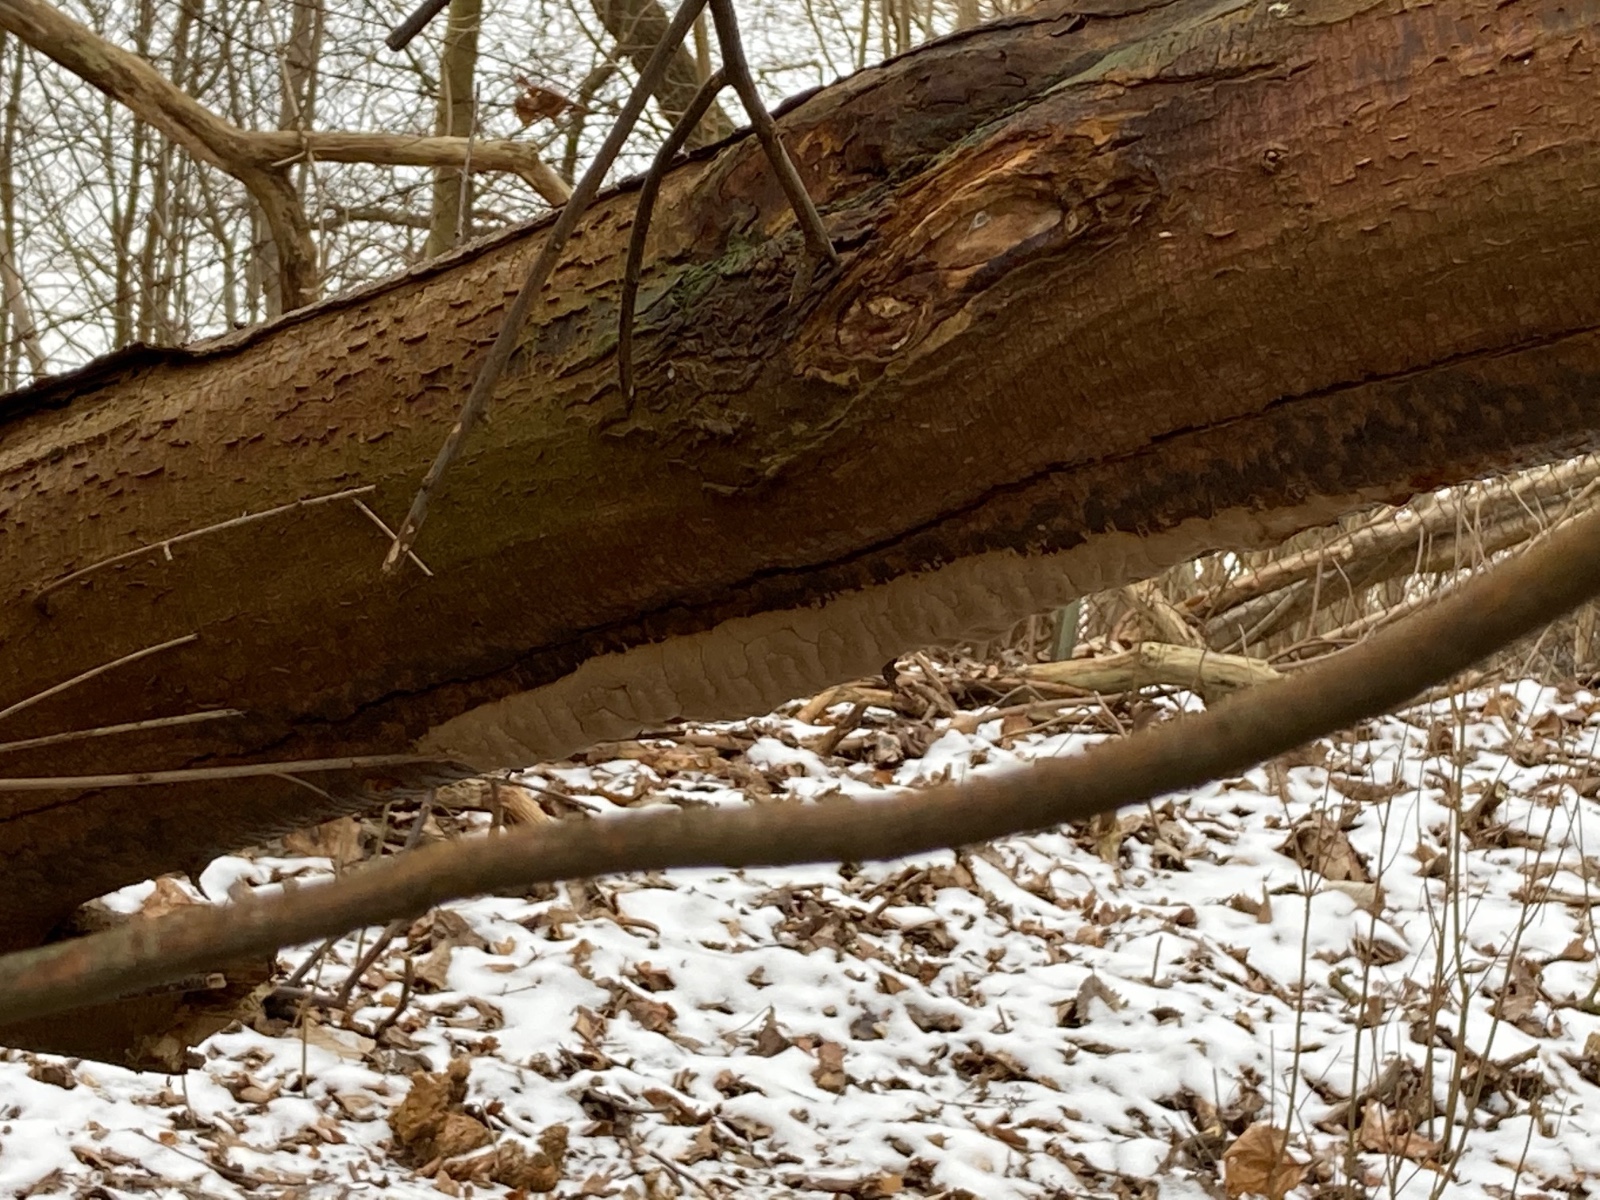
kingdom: Fungi
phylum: Basidiomycota
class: Agaricomycetes
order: Hymenochaetales
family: Hymenochaetaceae
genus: Phellinus
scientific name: Phellinus pomaceus
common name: blomme-ildporesvamp
